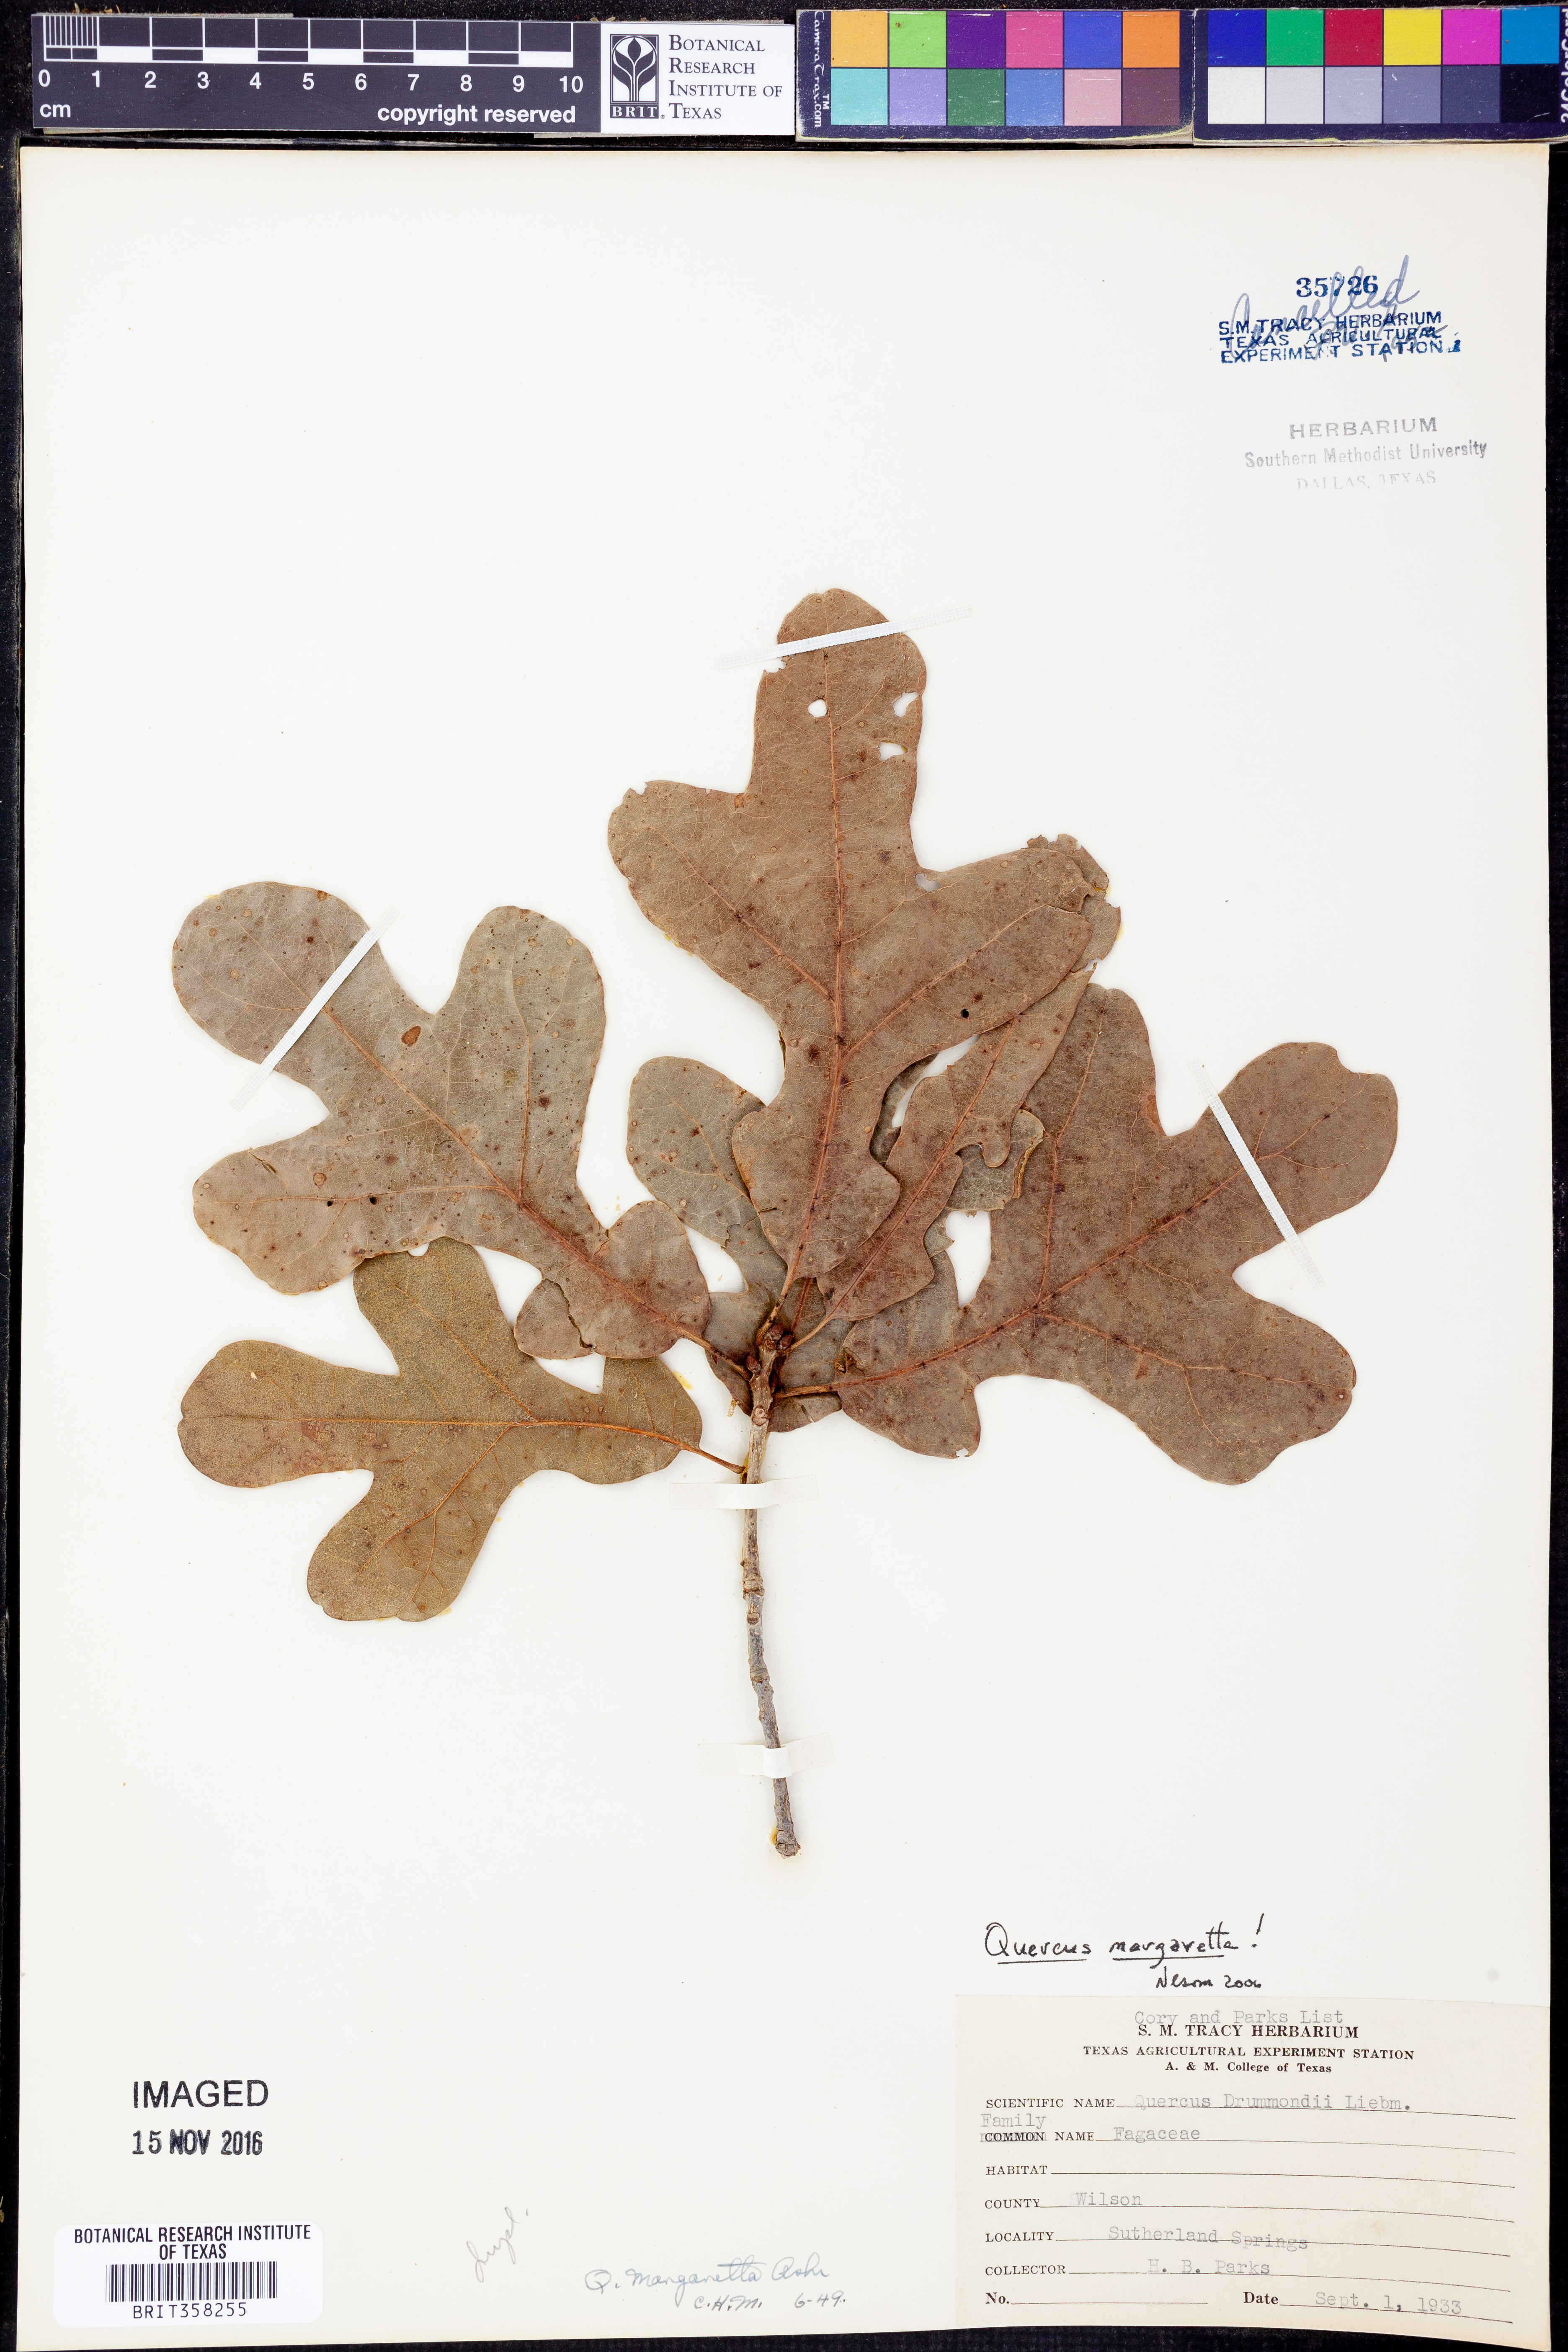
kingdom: Plantae
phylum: Tracheophyta
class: Magnoliopsida
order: Fagales
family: Fagaceae
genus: Quercus
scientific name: Quercus margaretta
